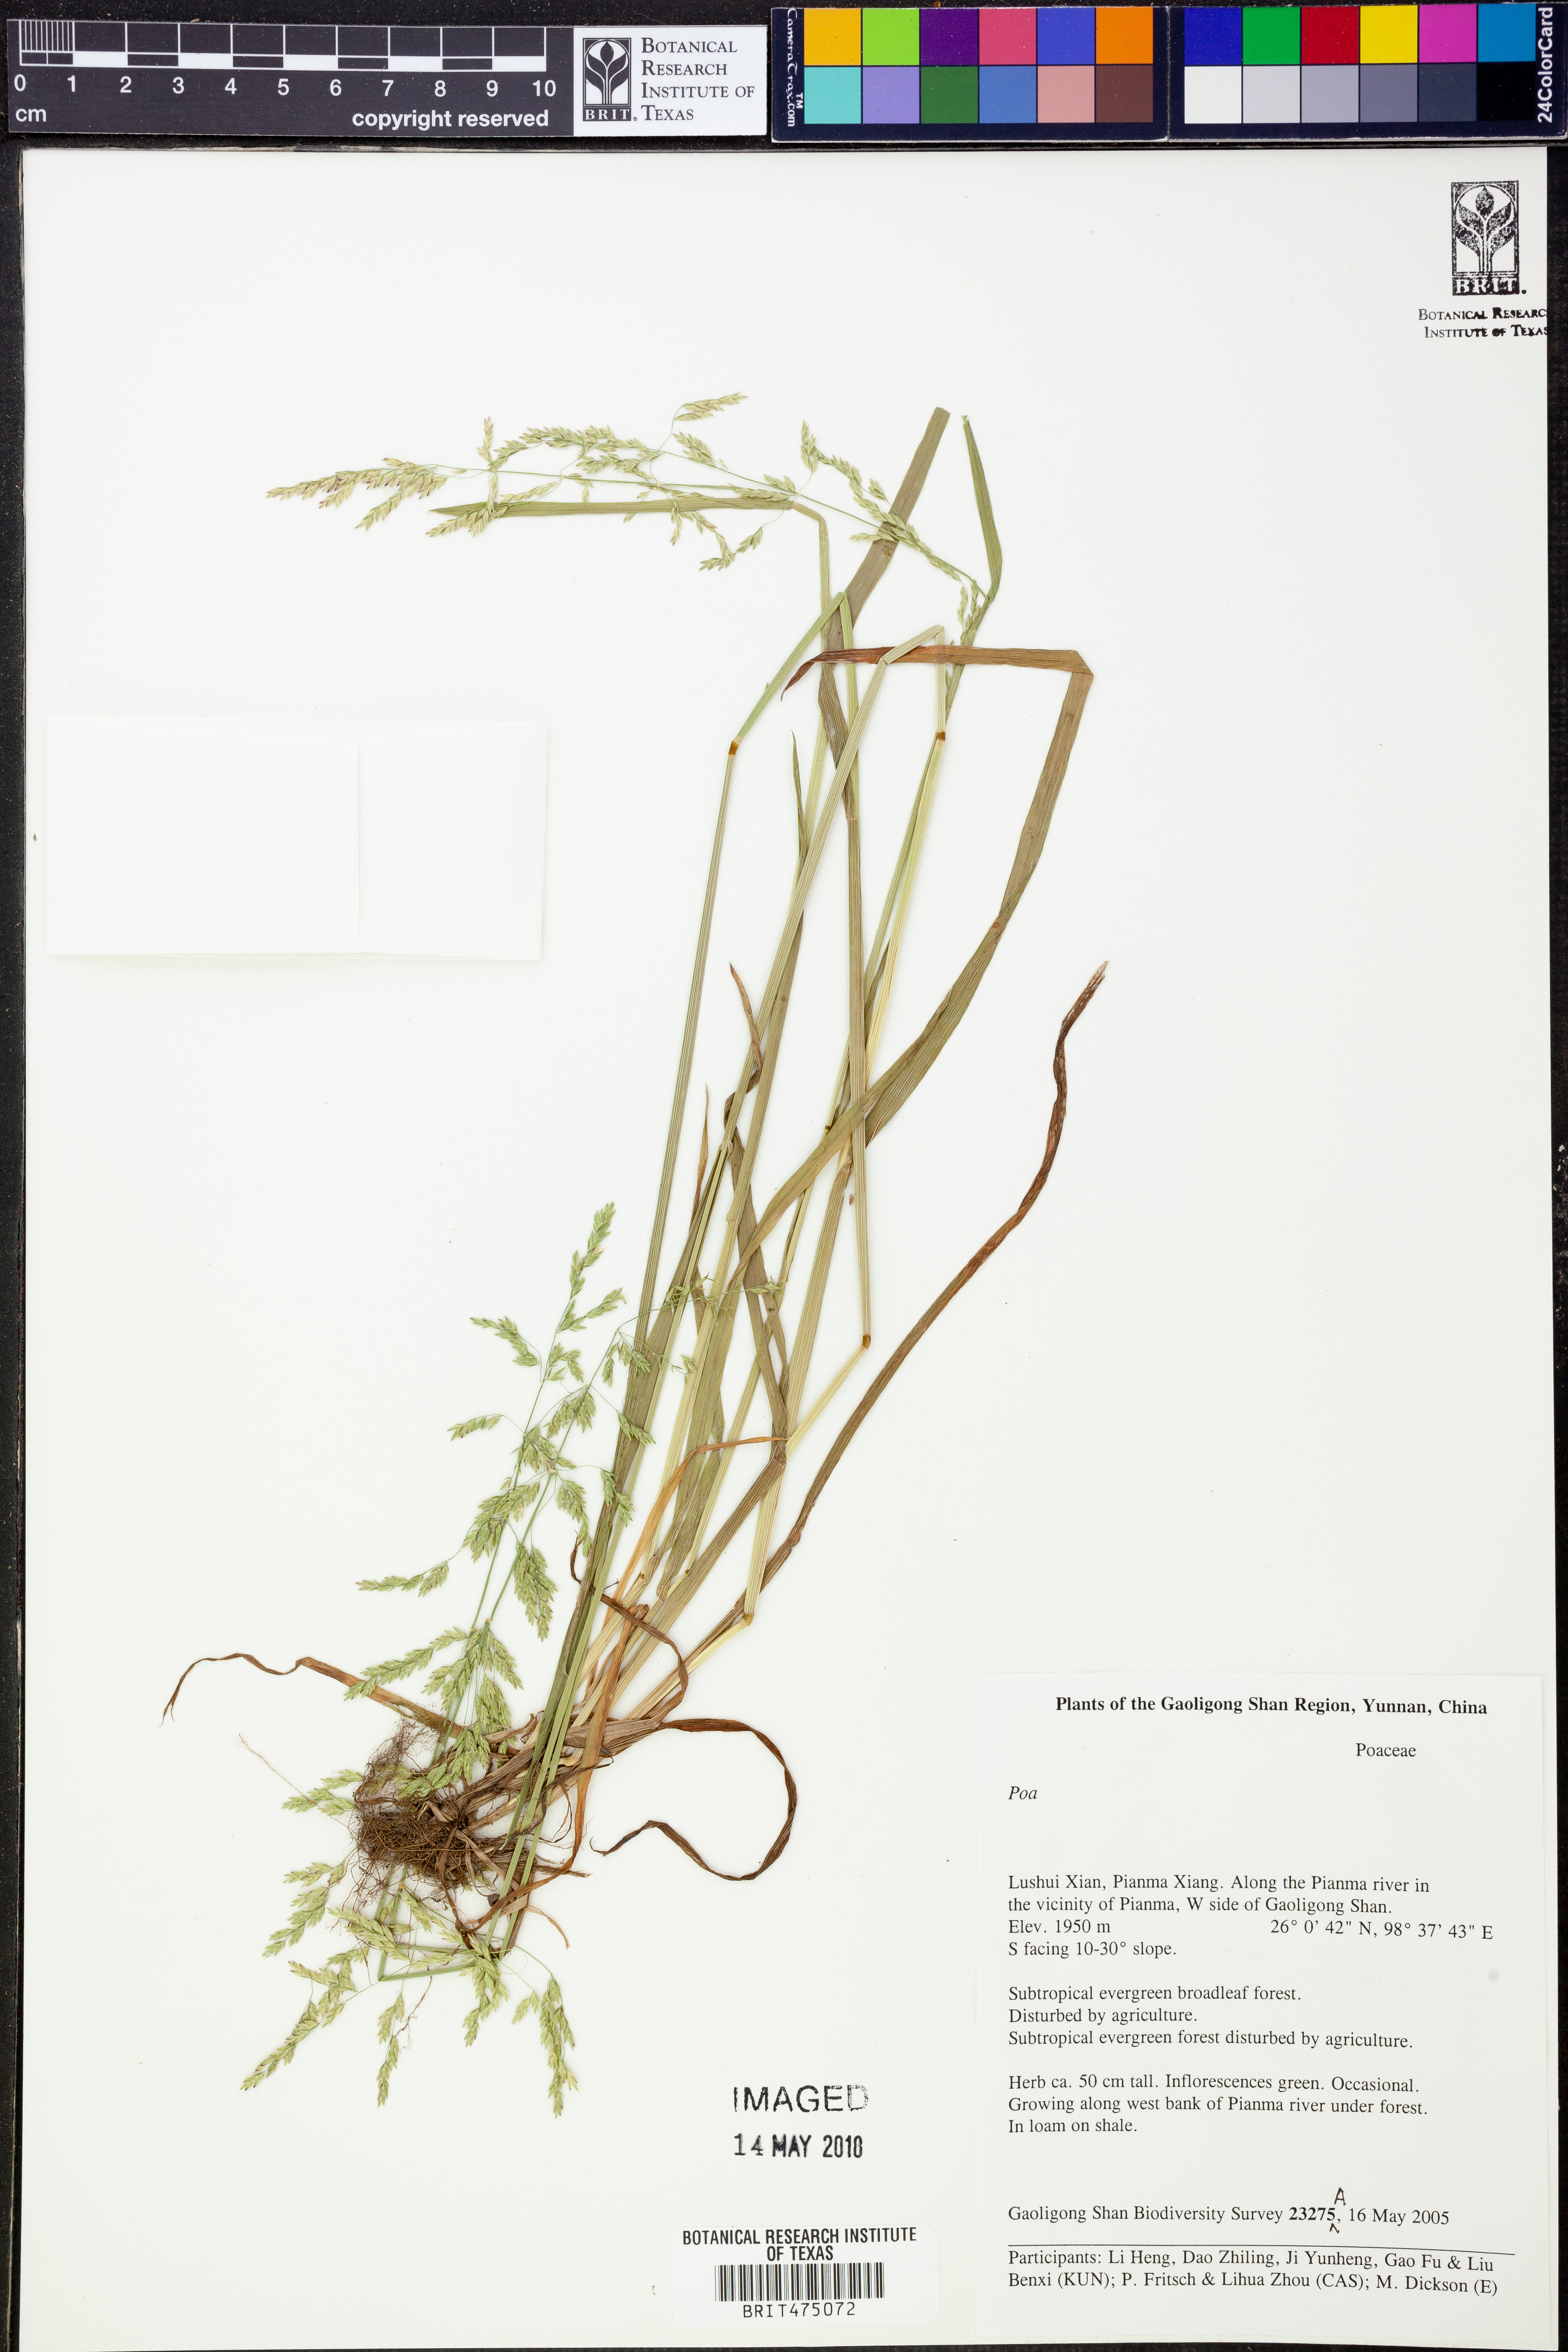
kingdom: Plantae
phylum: Tracheophyta
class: Liliopsida
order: Poales
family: Poaceae
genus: Poa
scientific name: Poa
